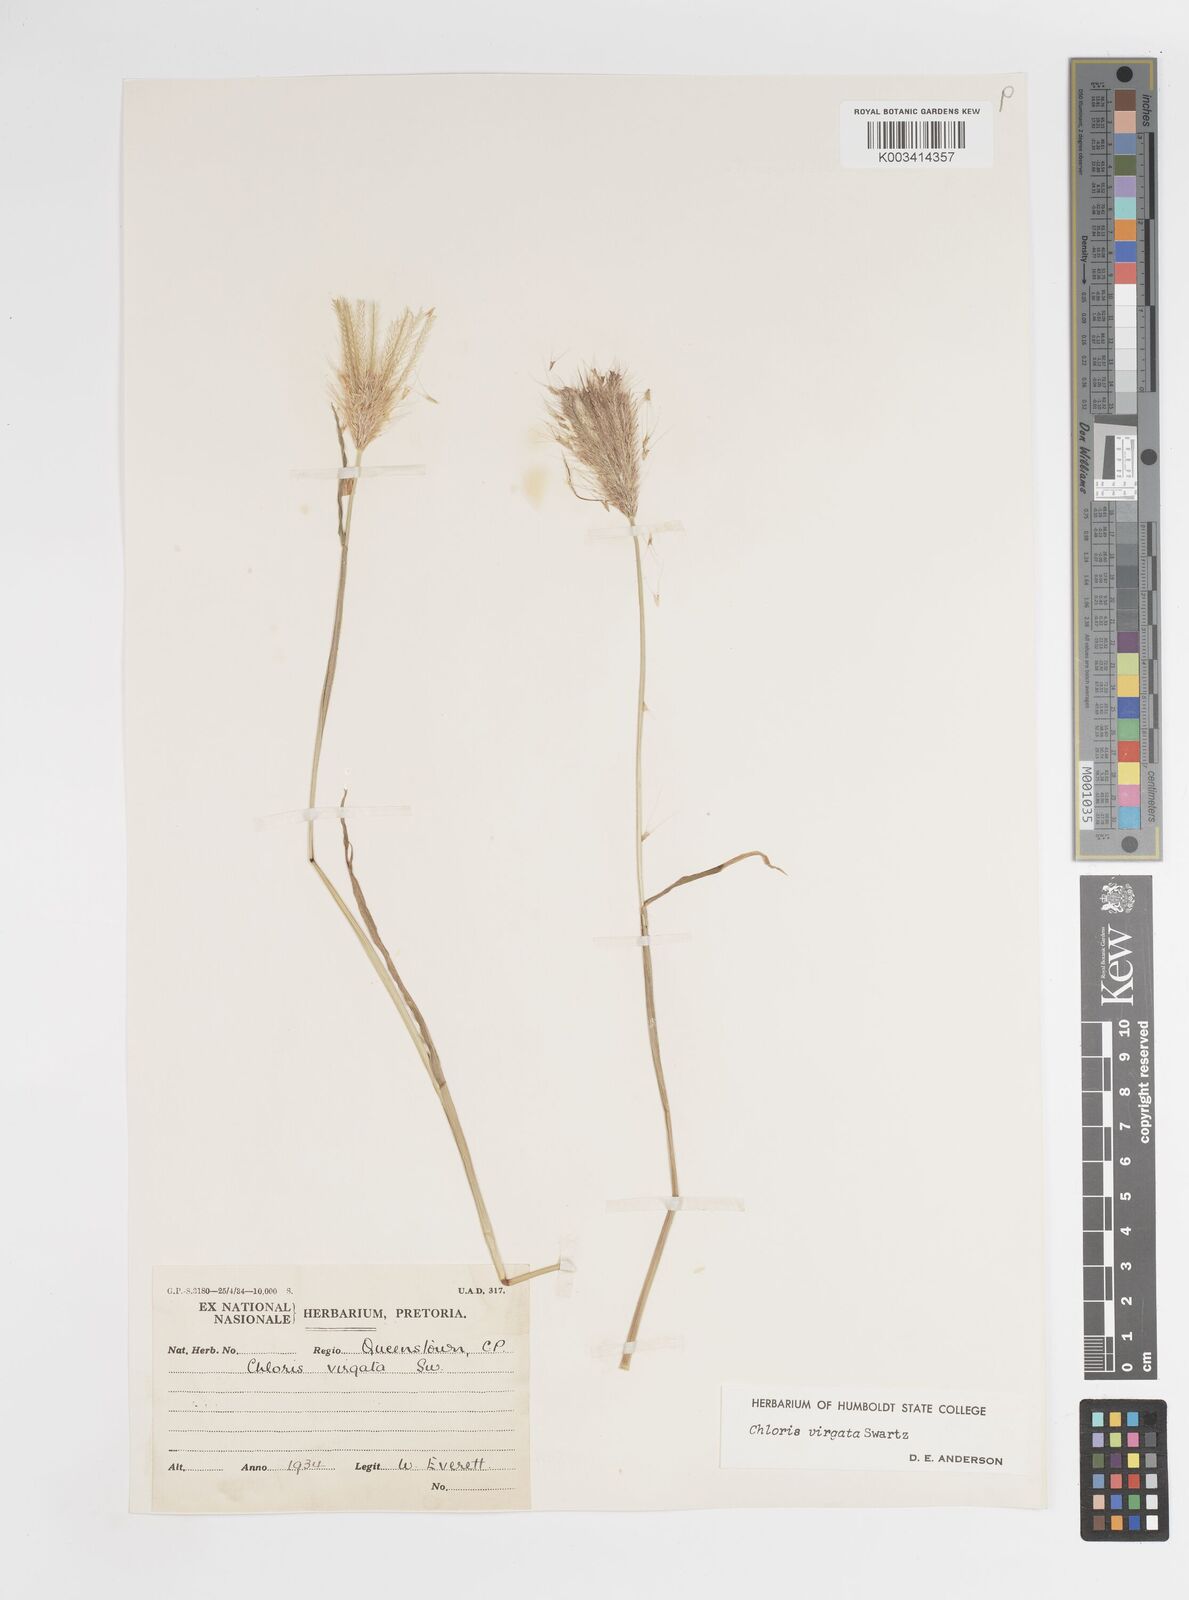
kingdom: Plantae
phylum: Tracheophyta
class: Liliopsida
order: Poales
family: Poaceae
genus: Chloris
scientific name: Chloris virgata
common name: Feathery rhodes-grass
